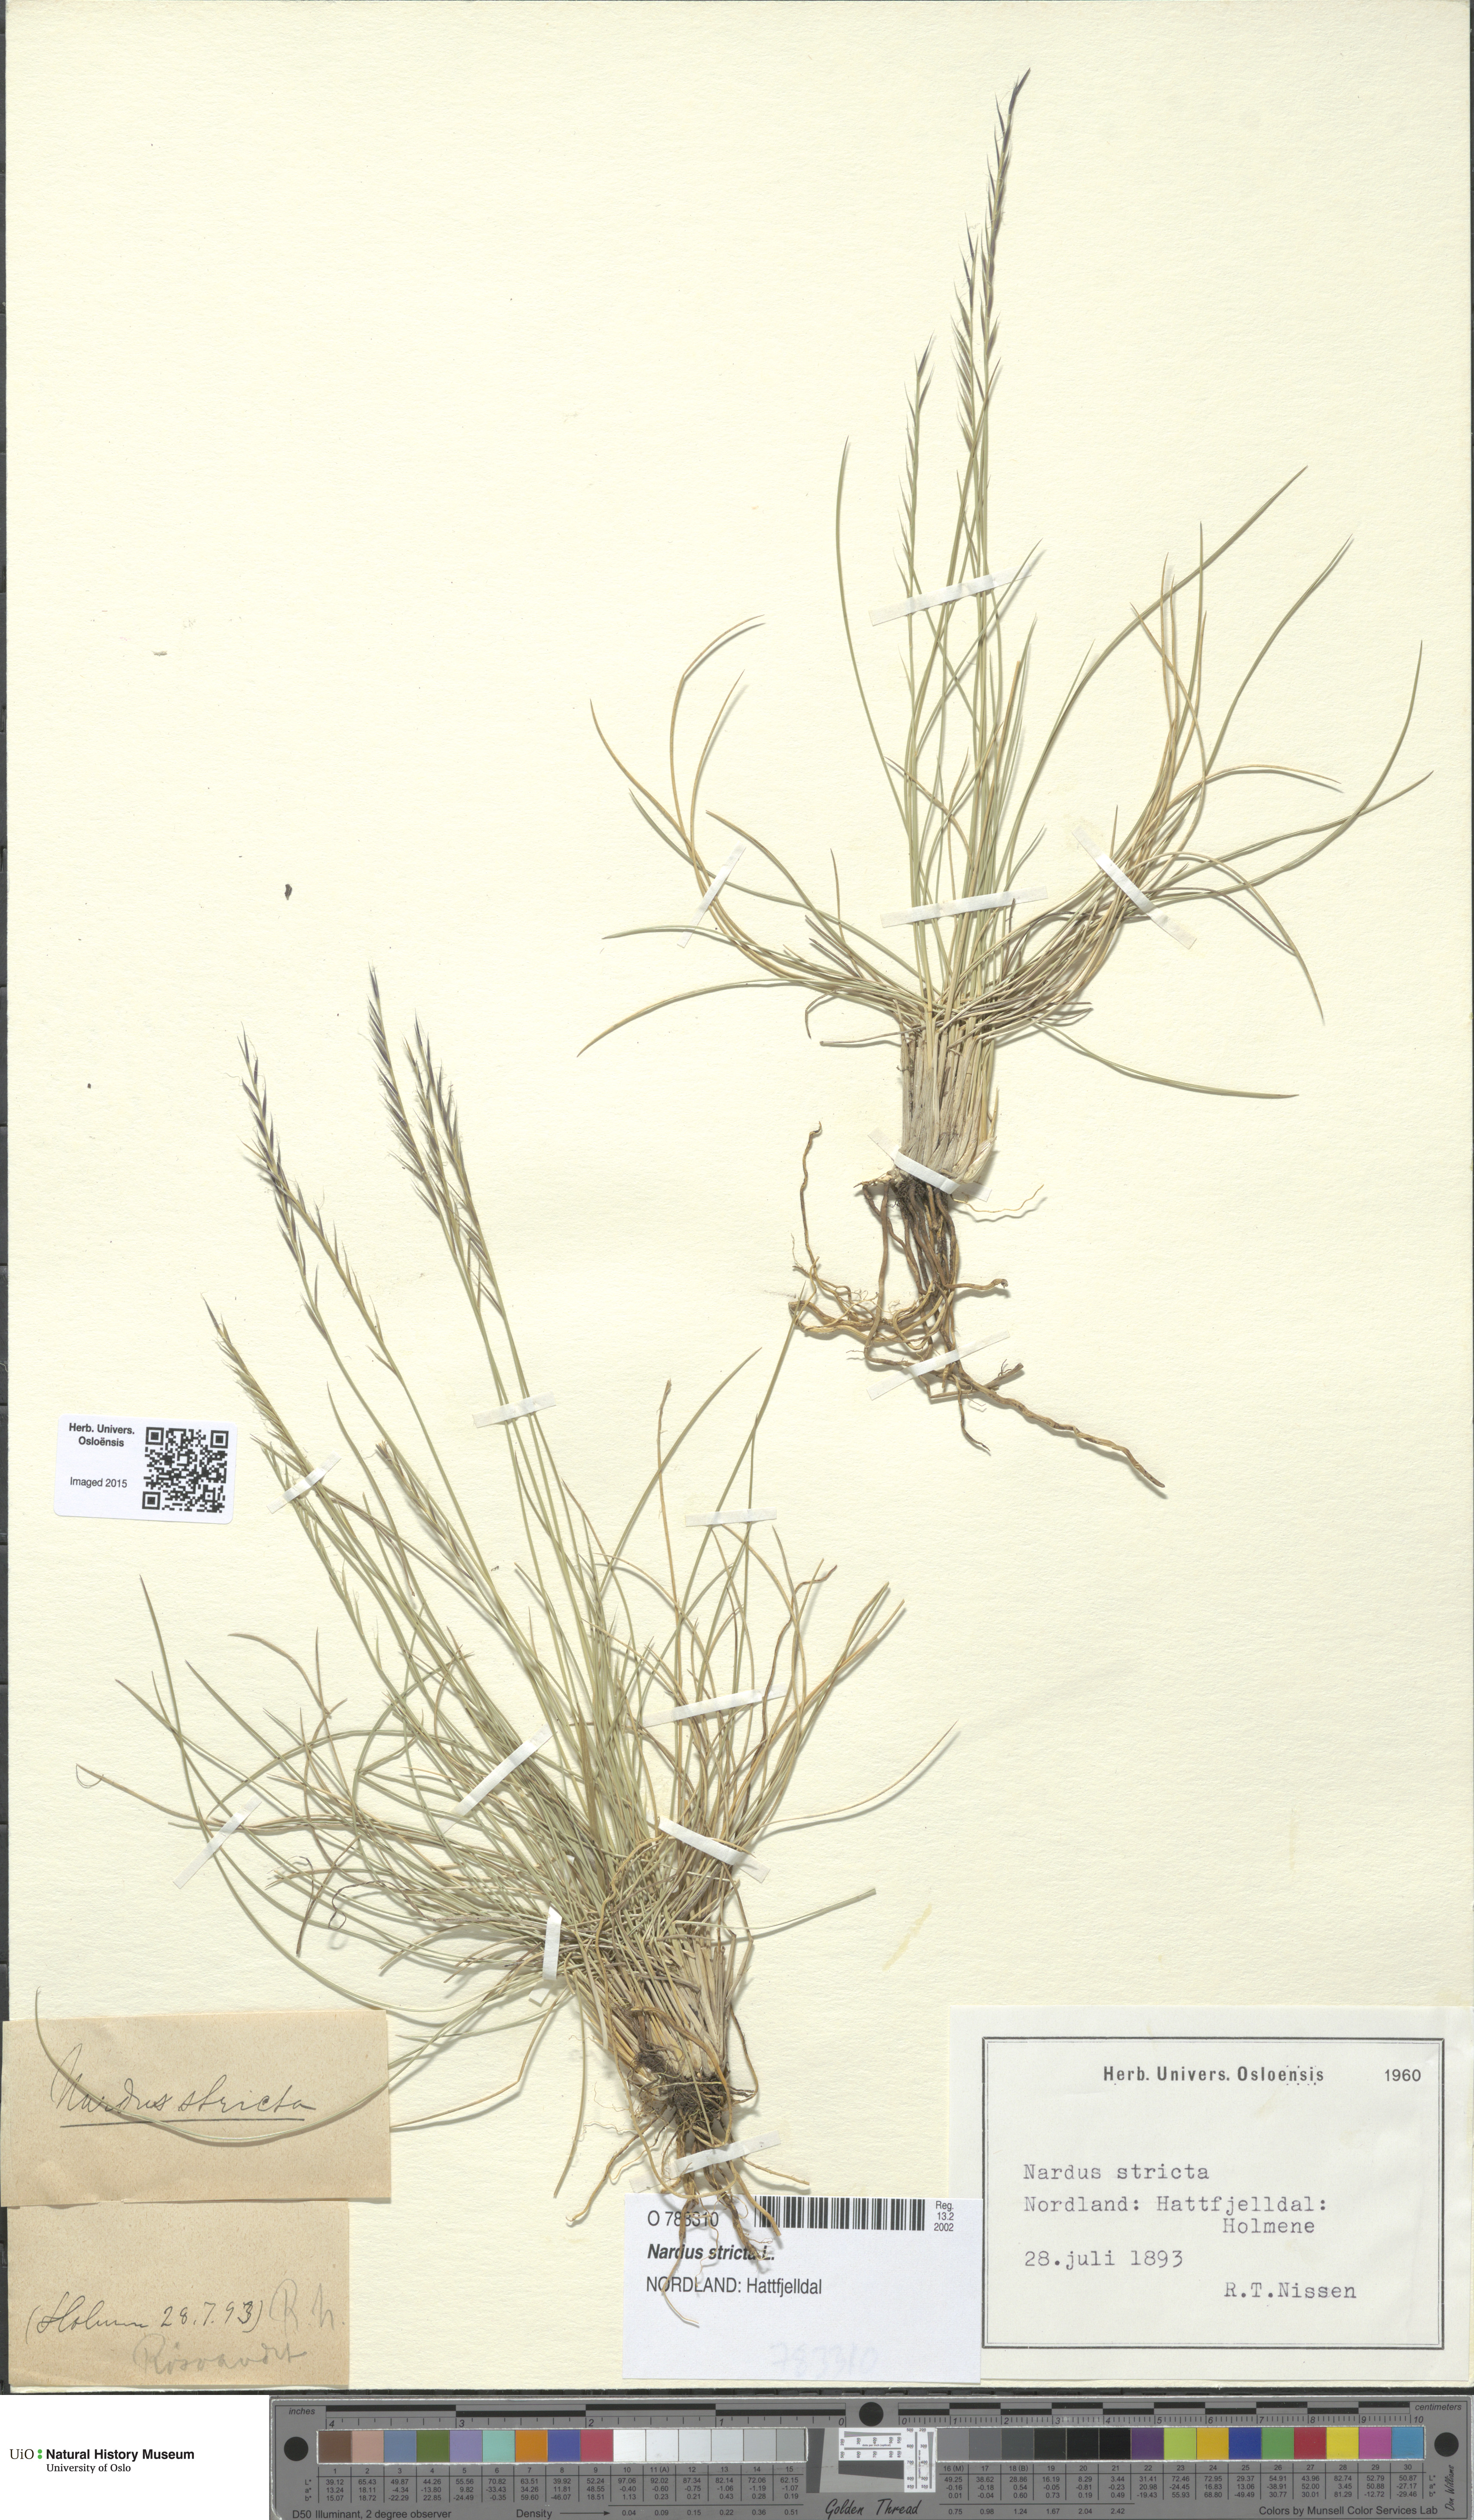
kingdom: Plantae
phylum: Tracheophyta
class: Magnoliopsida
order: Malpighiales
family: Salicaceae
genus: Salix
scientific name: Salix cinerea
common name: Common sallow
